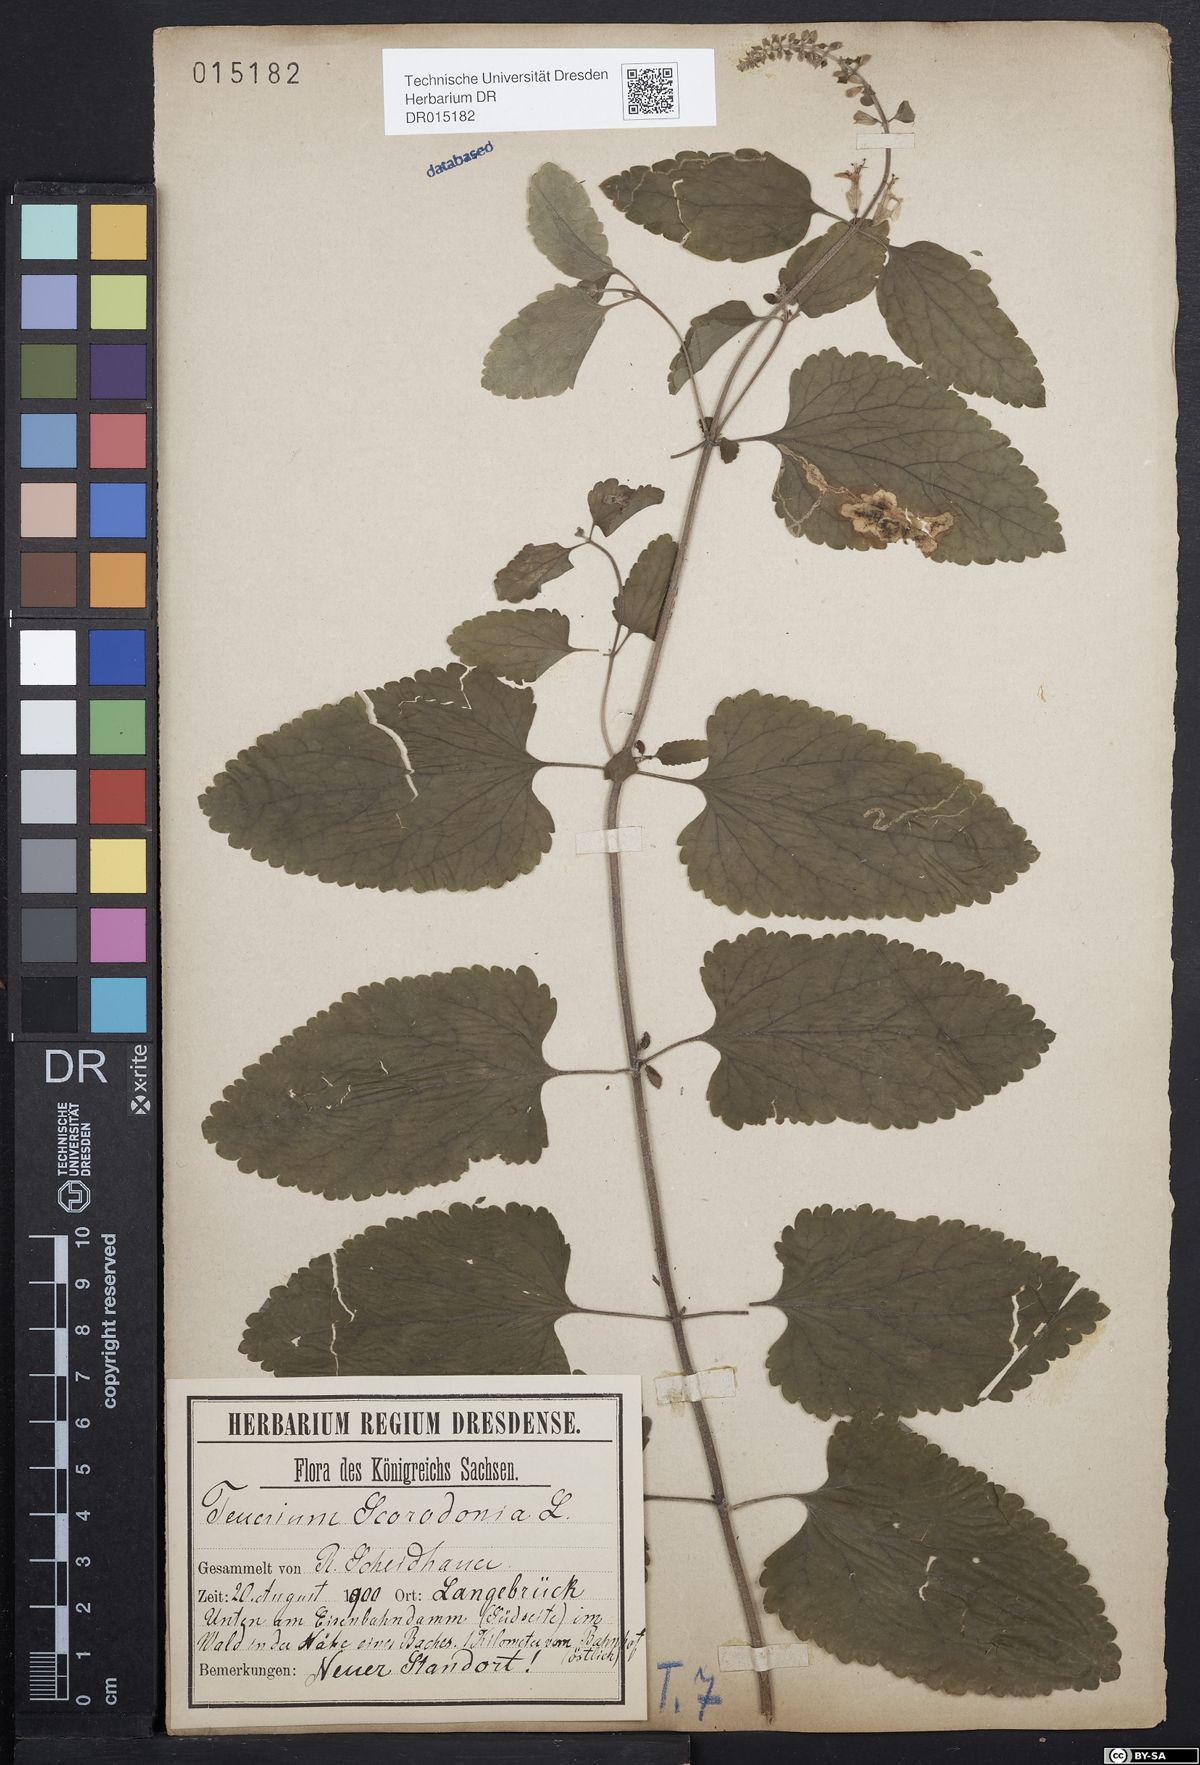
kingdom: Plantae
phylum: Tracheophyta
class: Magnoliopsida
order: Lamiales
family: Lamiaceae
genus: Teucrium
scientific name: Teucrium scorodonia
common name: Woodland germander
